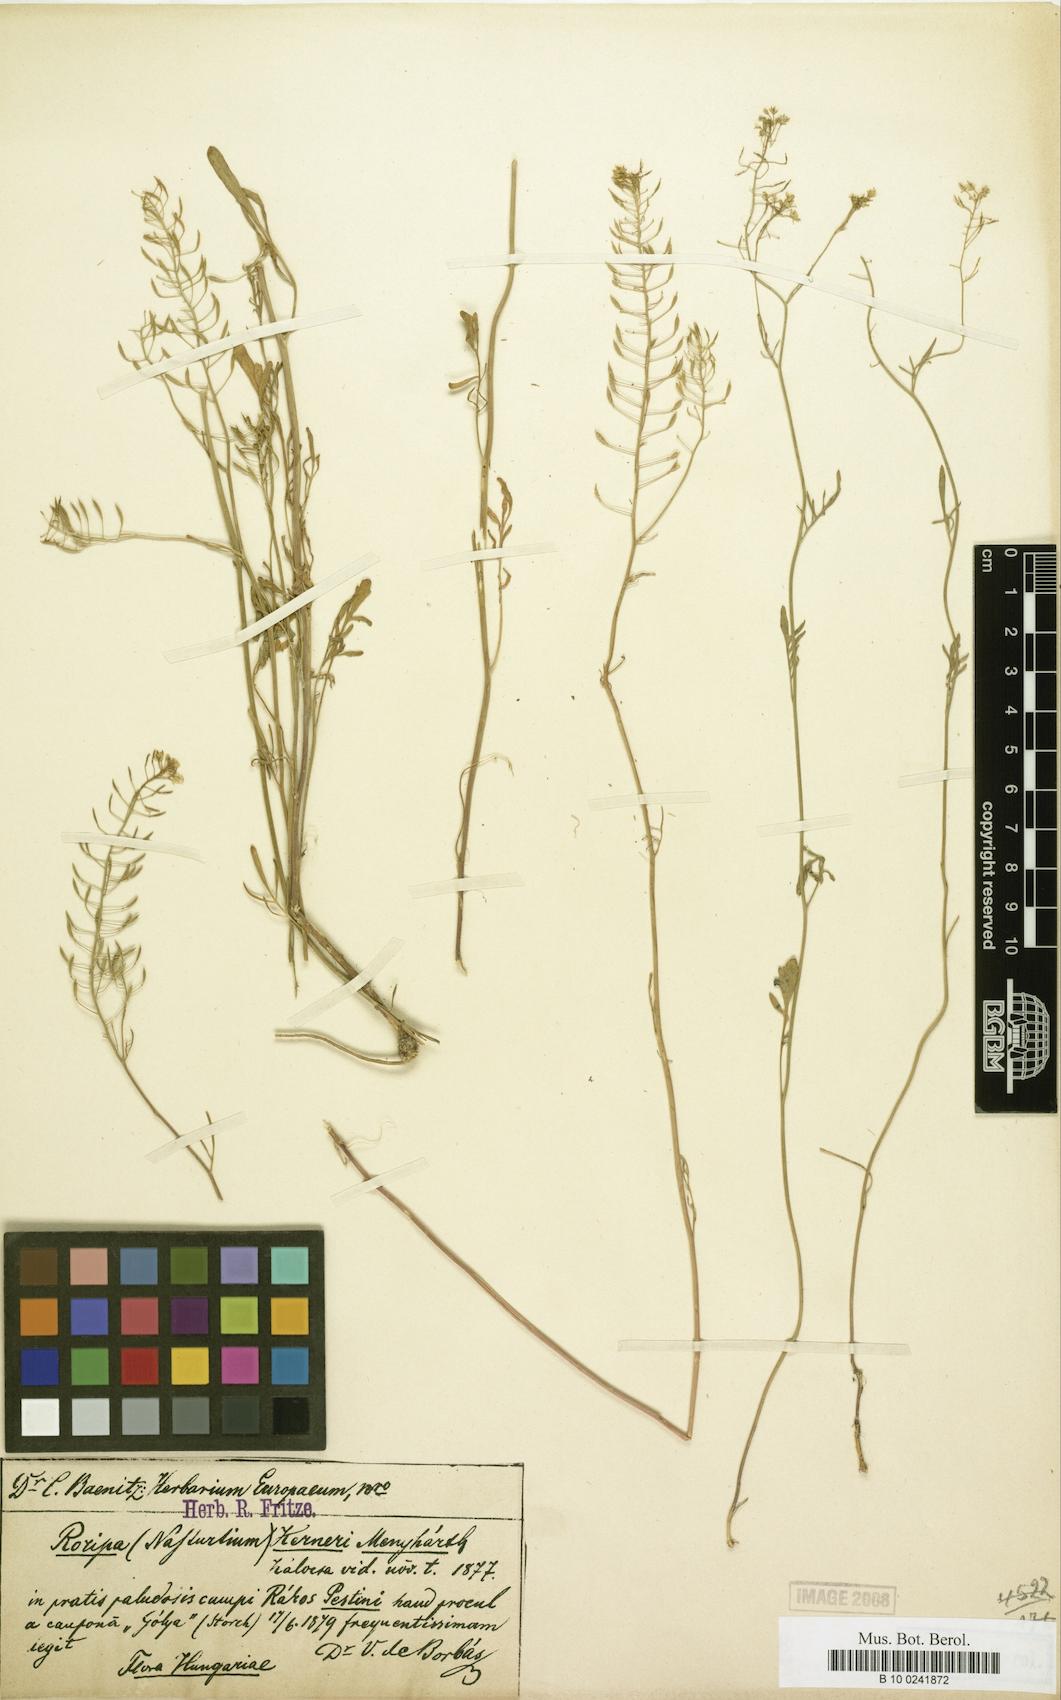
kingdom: Plantae
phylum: Tracheophyta
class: Magnoliopsida
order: Brassicales
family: Brassicaceae
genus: Nasturtium
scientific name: Nasturtium kerneri
